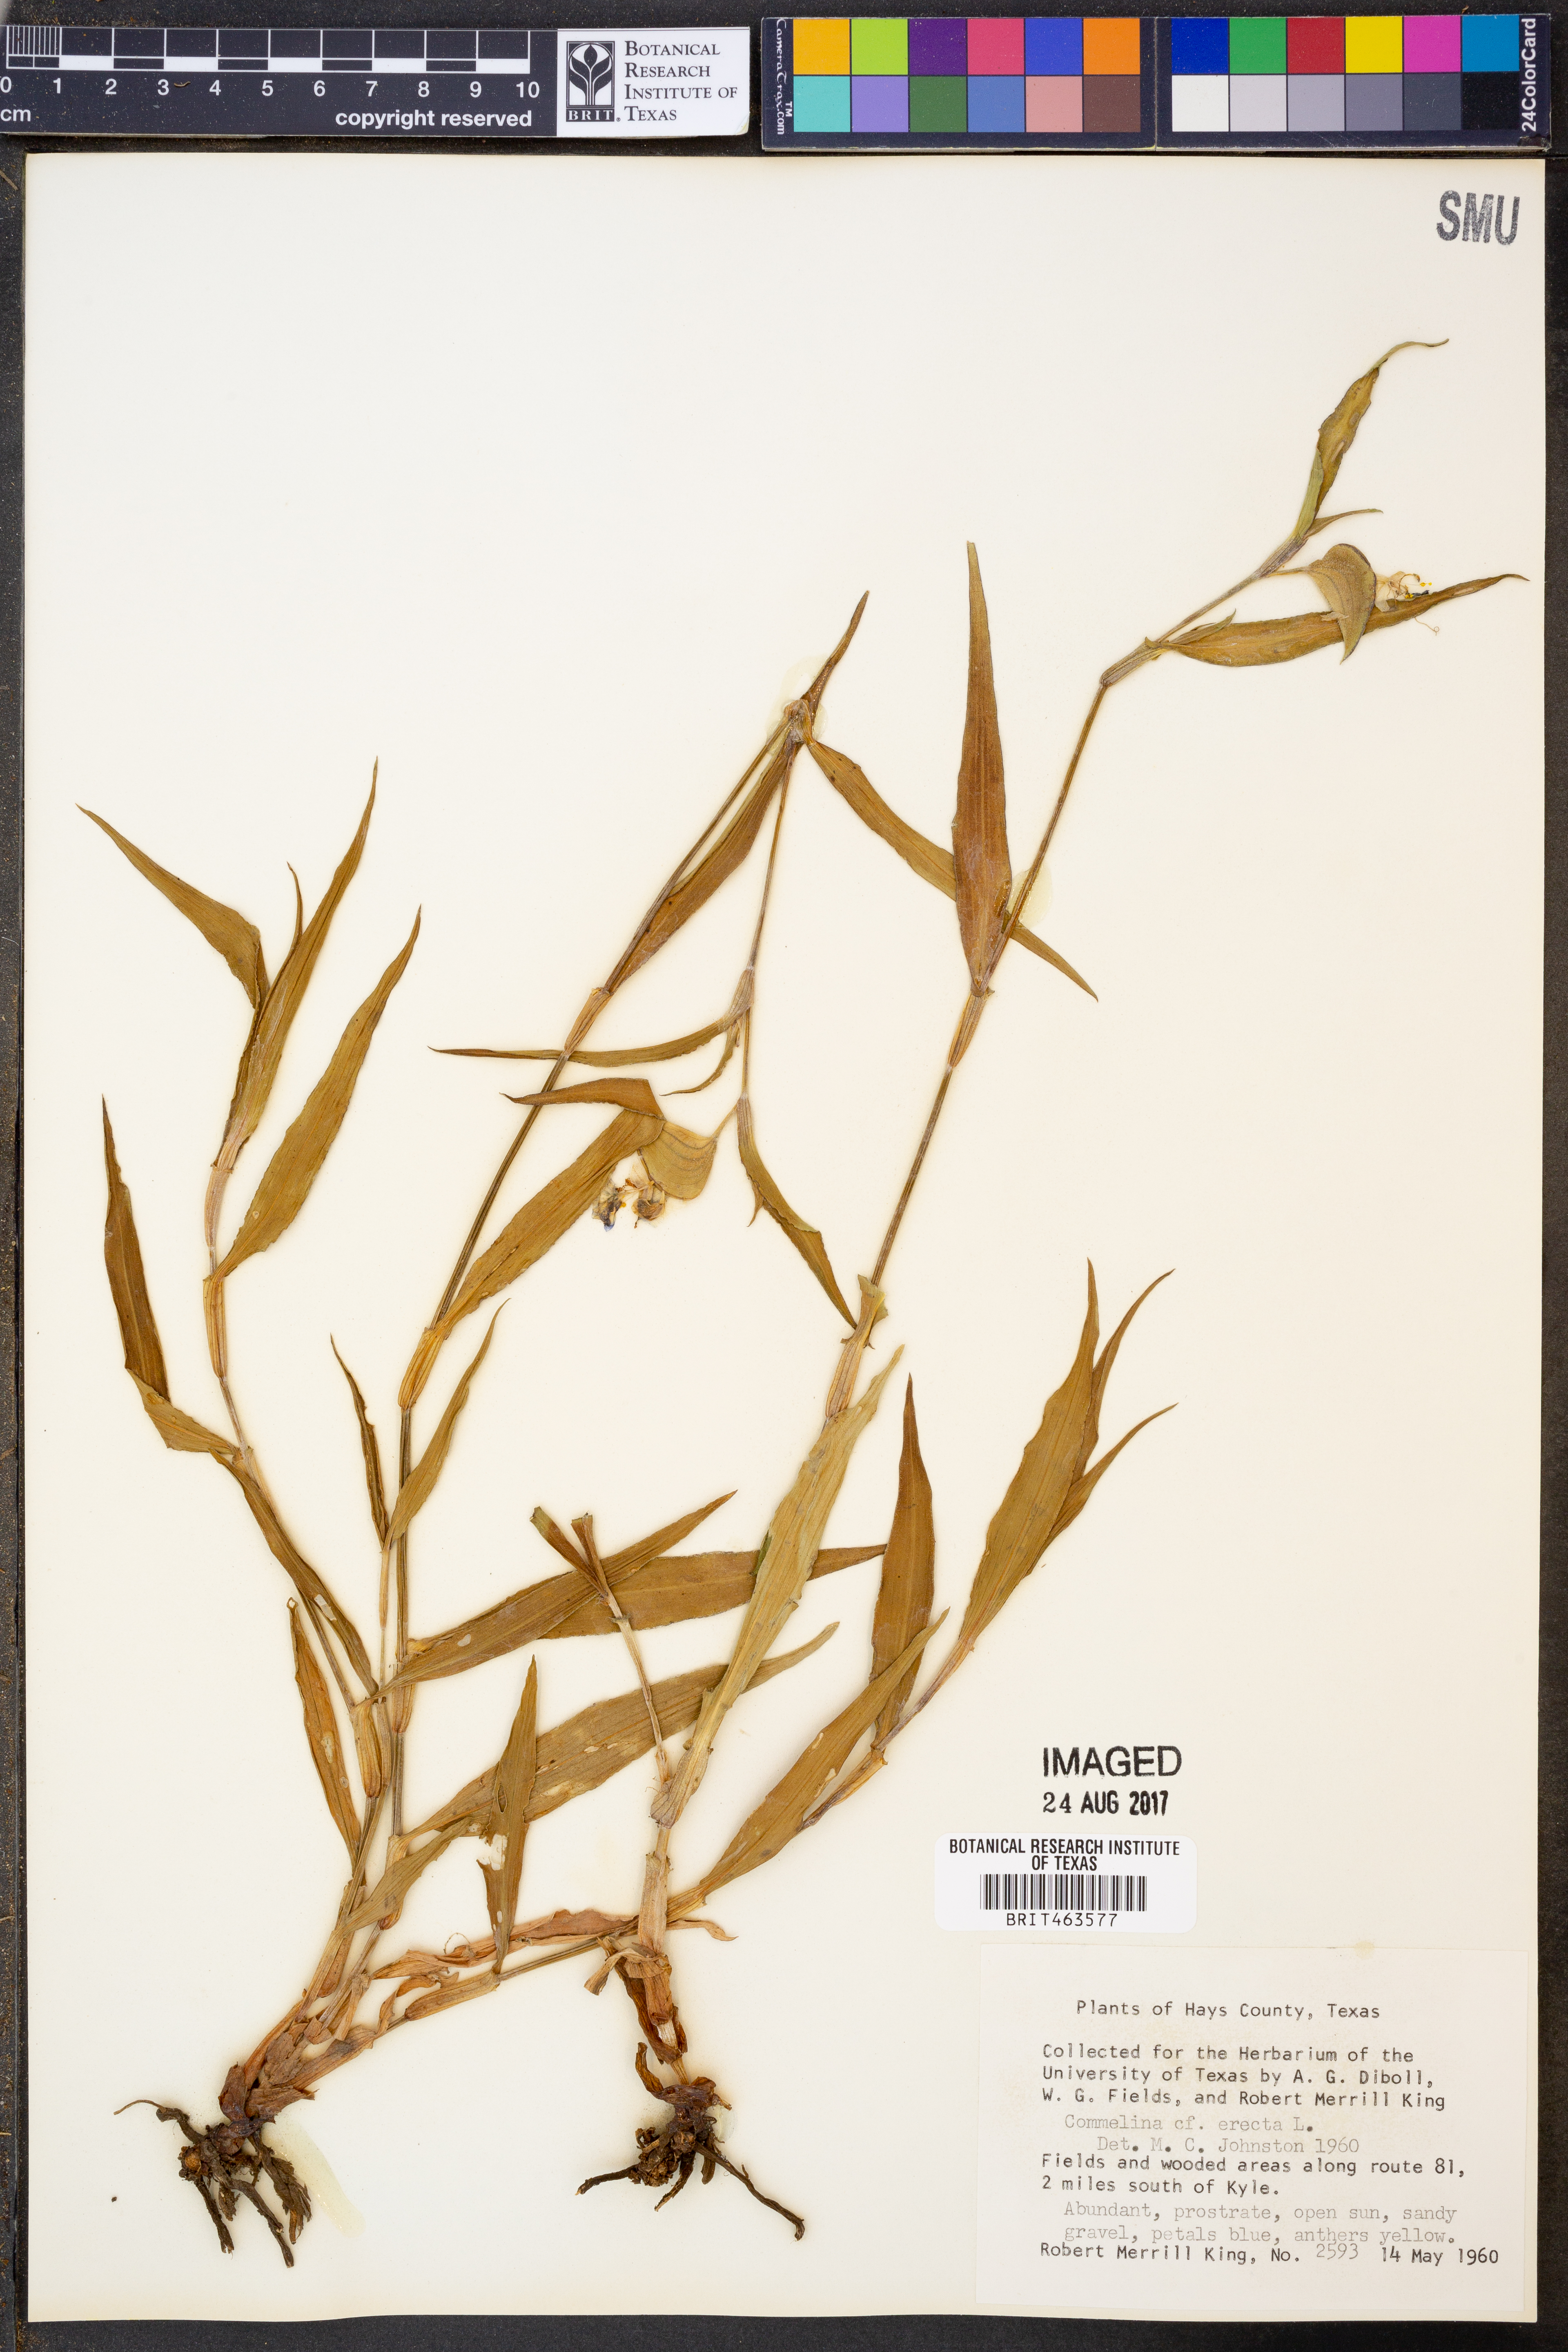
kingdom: Plantae
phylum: Tracheophyta
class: Liliopsida
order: Commelinales
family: Commelinaceae
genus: Commelina
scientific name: Commelina erecta
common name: Blousel blommetjie
